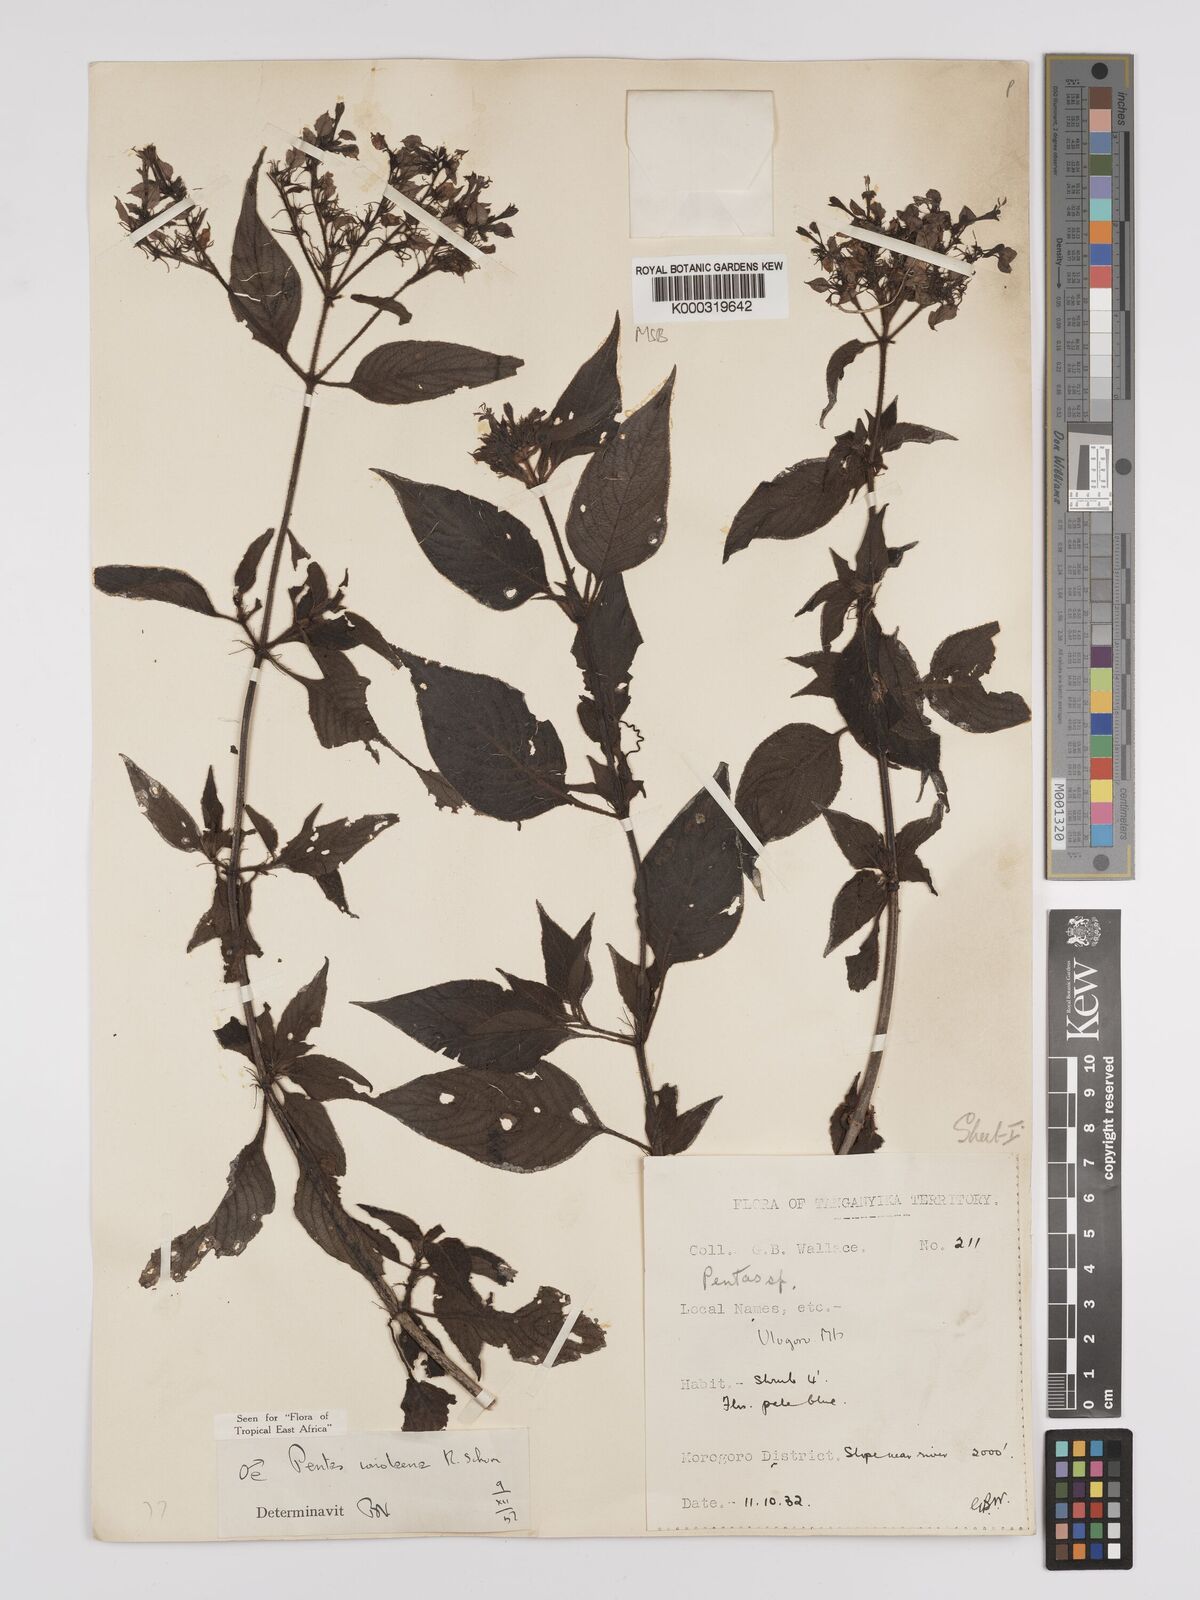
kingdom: Plantae
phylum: Tracheophyta
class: Magnoliopsida
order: Gentianales
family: Rubiaceae
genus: Phyllopentas
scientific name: Phyllopentas ionolaena
